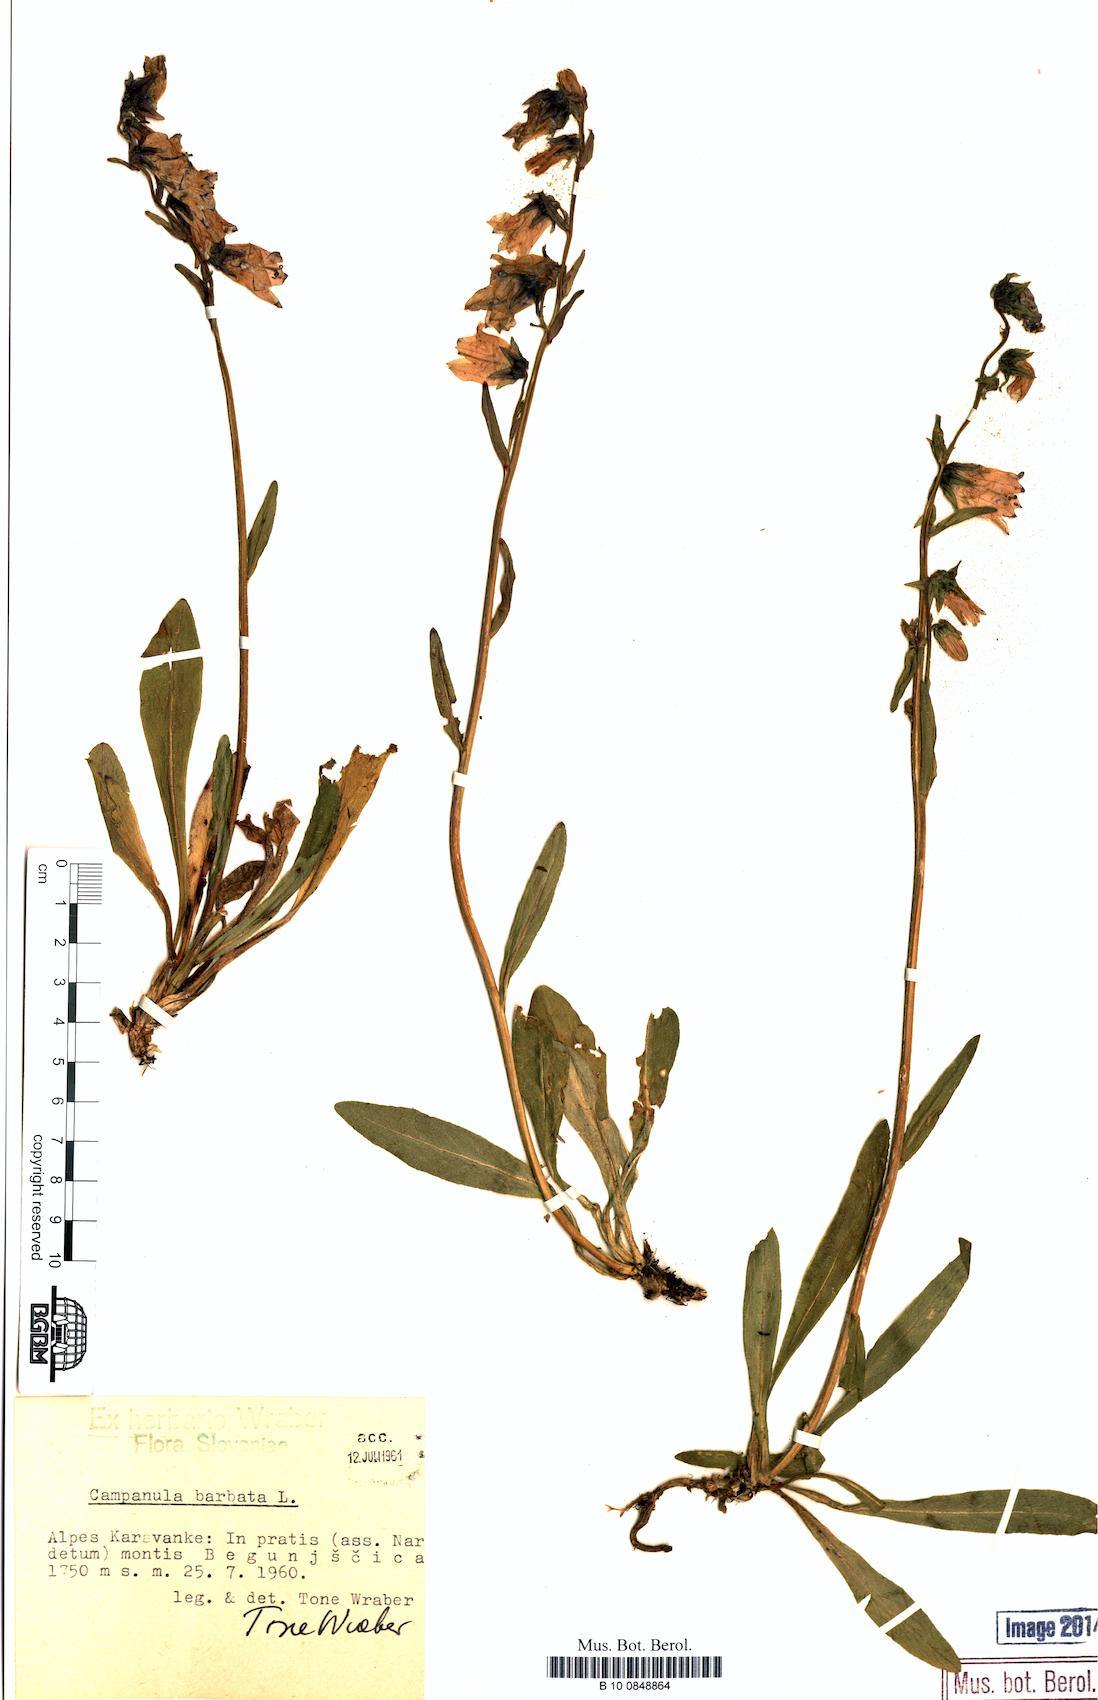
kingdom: Plantae
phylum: Tracheophyta
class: Magnoliopsida
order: Asterales
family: Campanulaceae
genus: Campanula
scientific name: Campanula barbata
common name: Bearded bellflower
